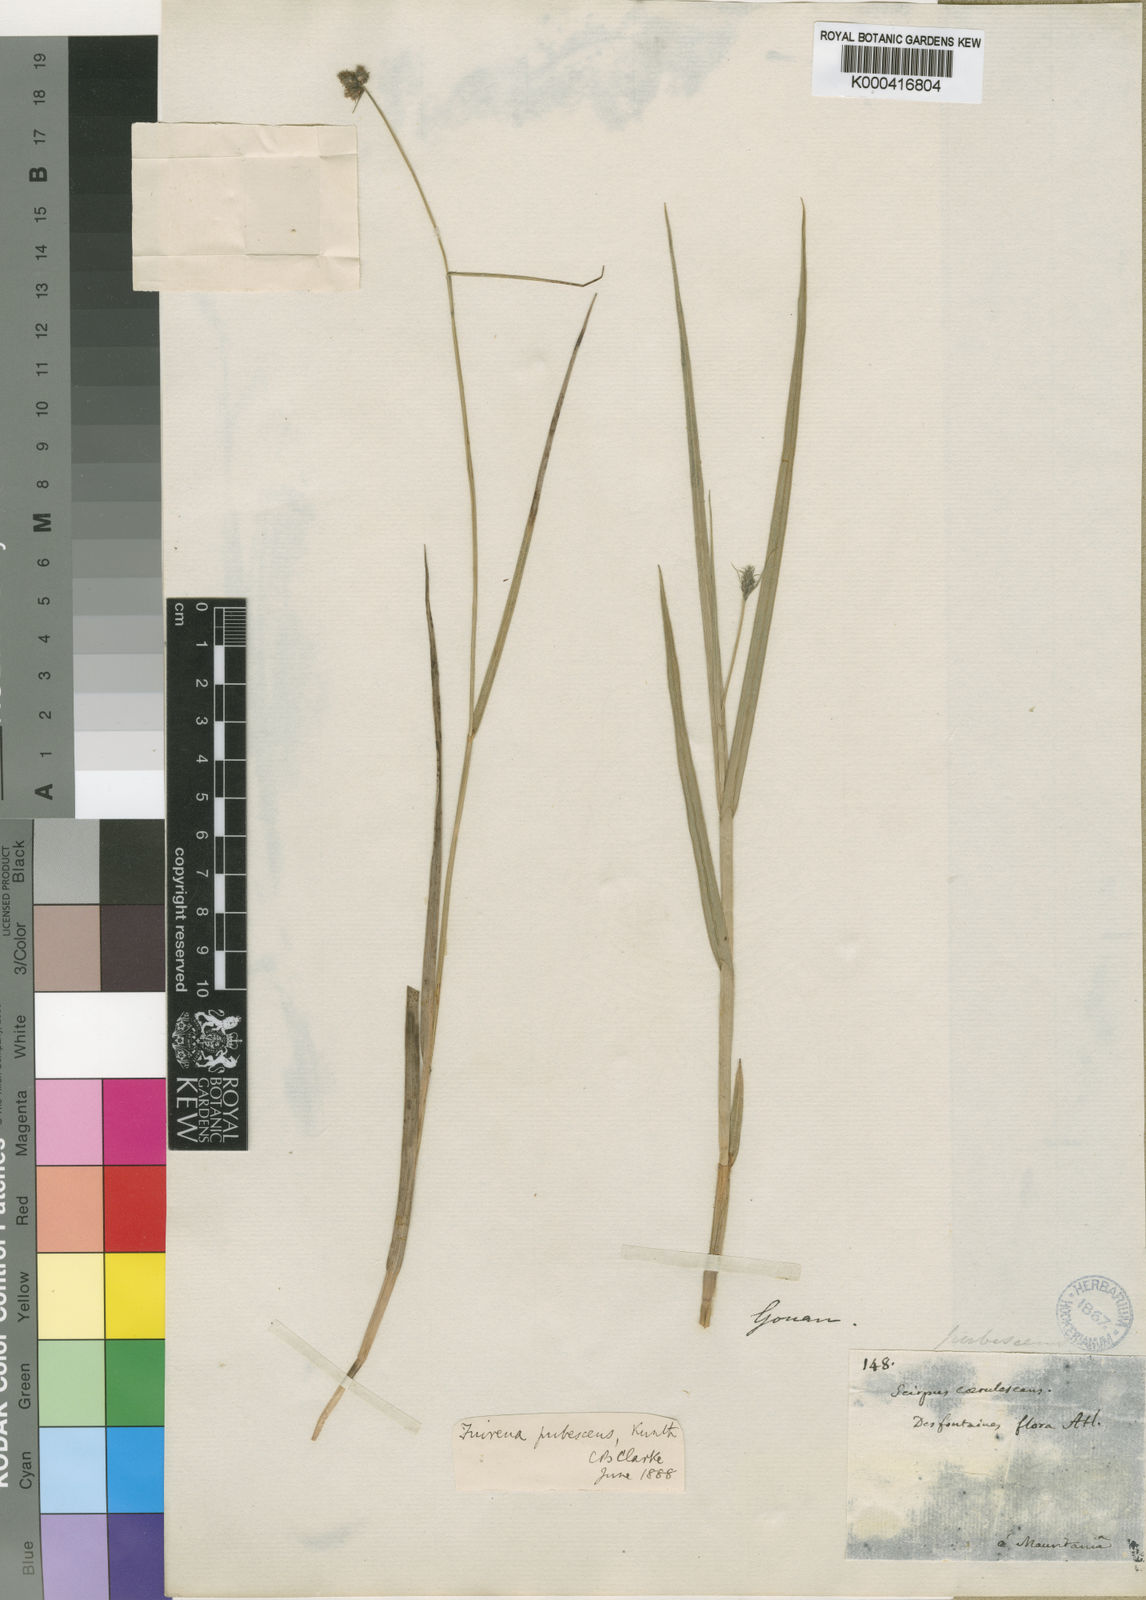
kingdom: Plantae
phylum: Tracheophyta
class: Liliopsida
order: Poales
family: Cyperaceae
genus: Fuirena
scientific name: Fuirena pubescens
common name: Hairy sedge
